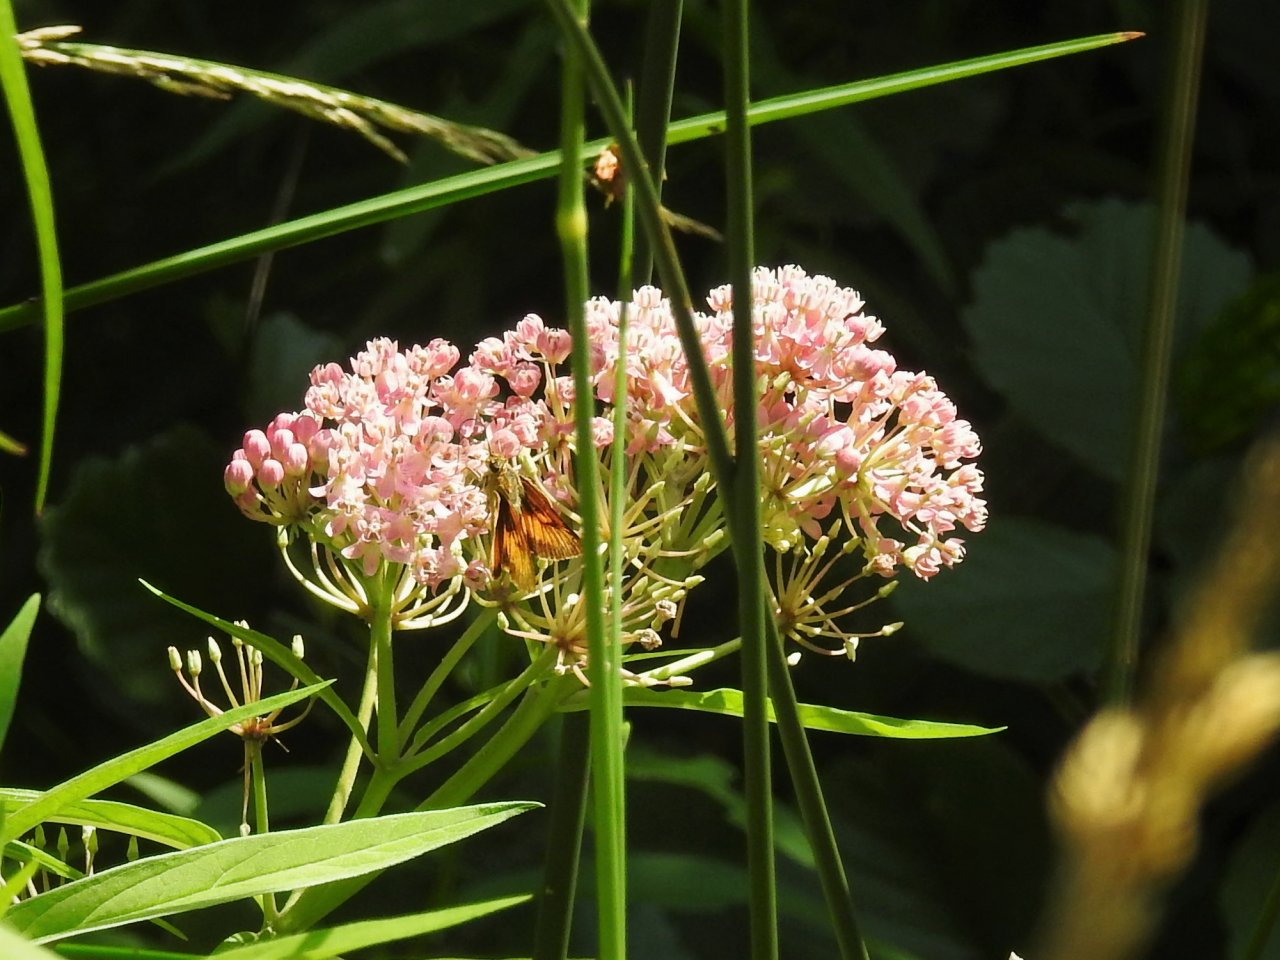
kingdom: Animalia
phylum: Arthropoda
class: Insecta
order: Lepidoptera
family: Hesperiidae
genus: Atrytone
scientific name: Atrytone delaware
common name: Delaware Skipper
